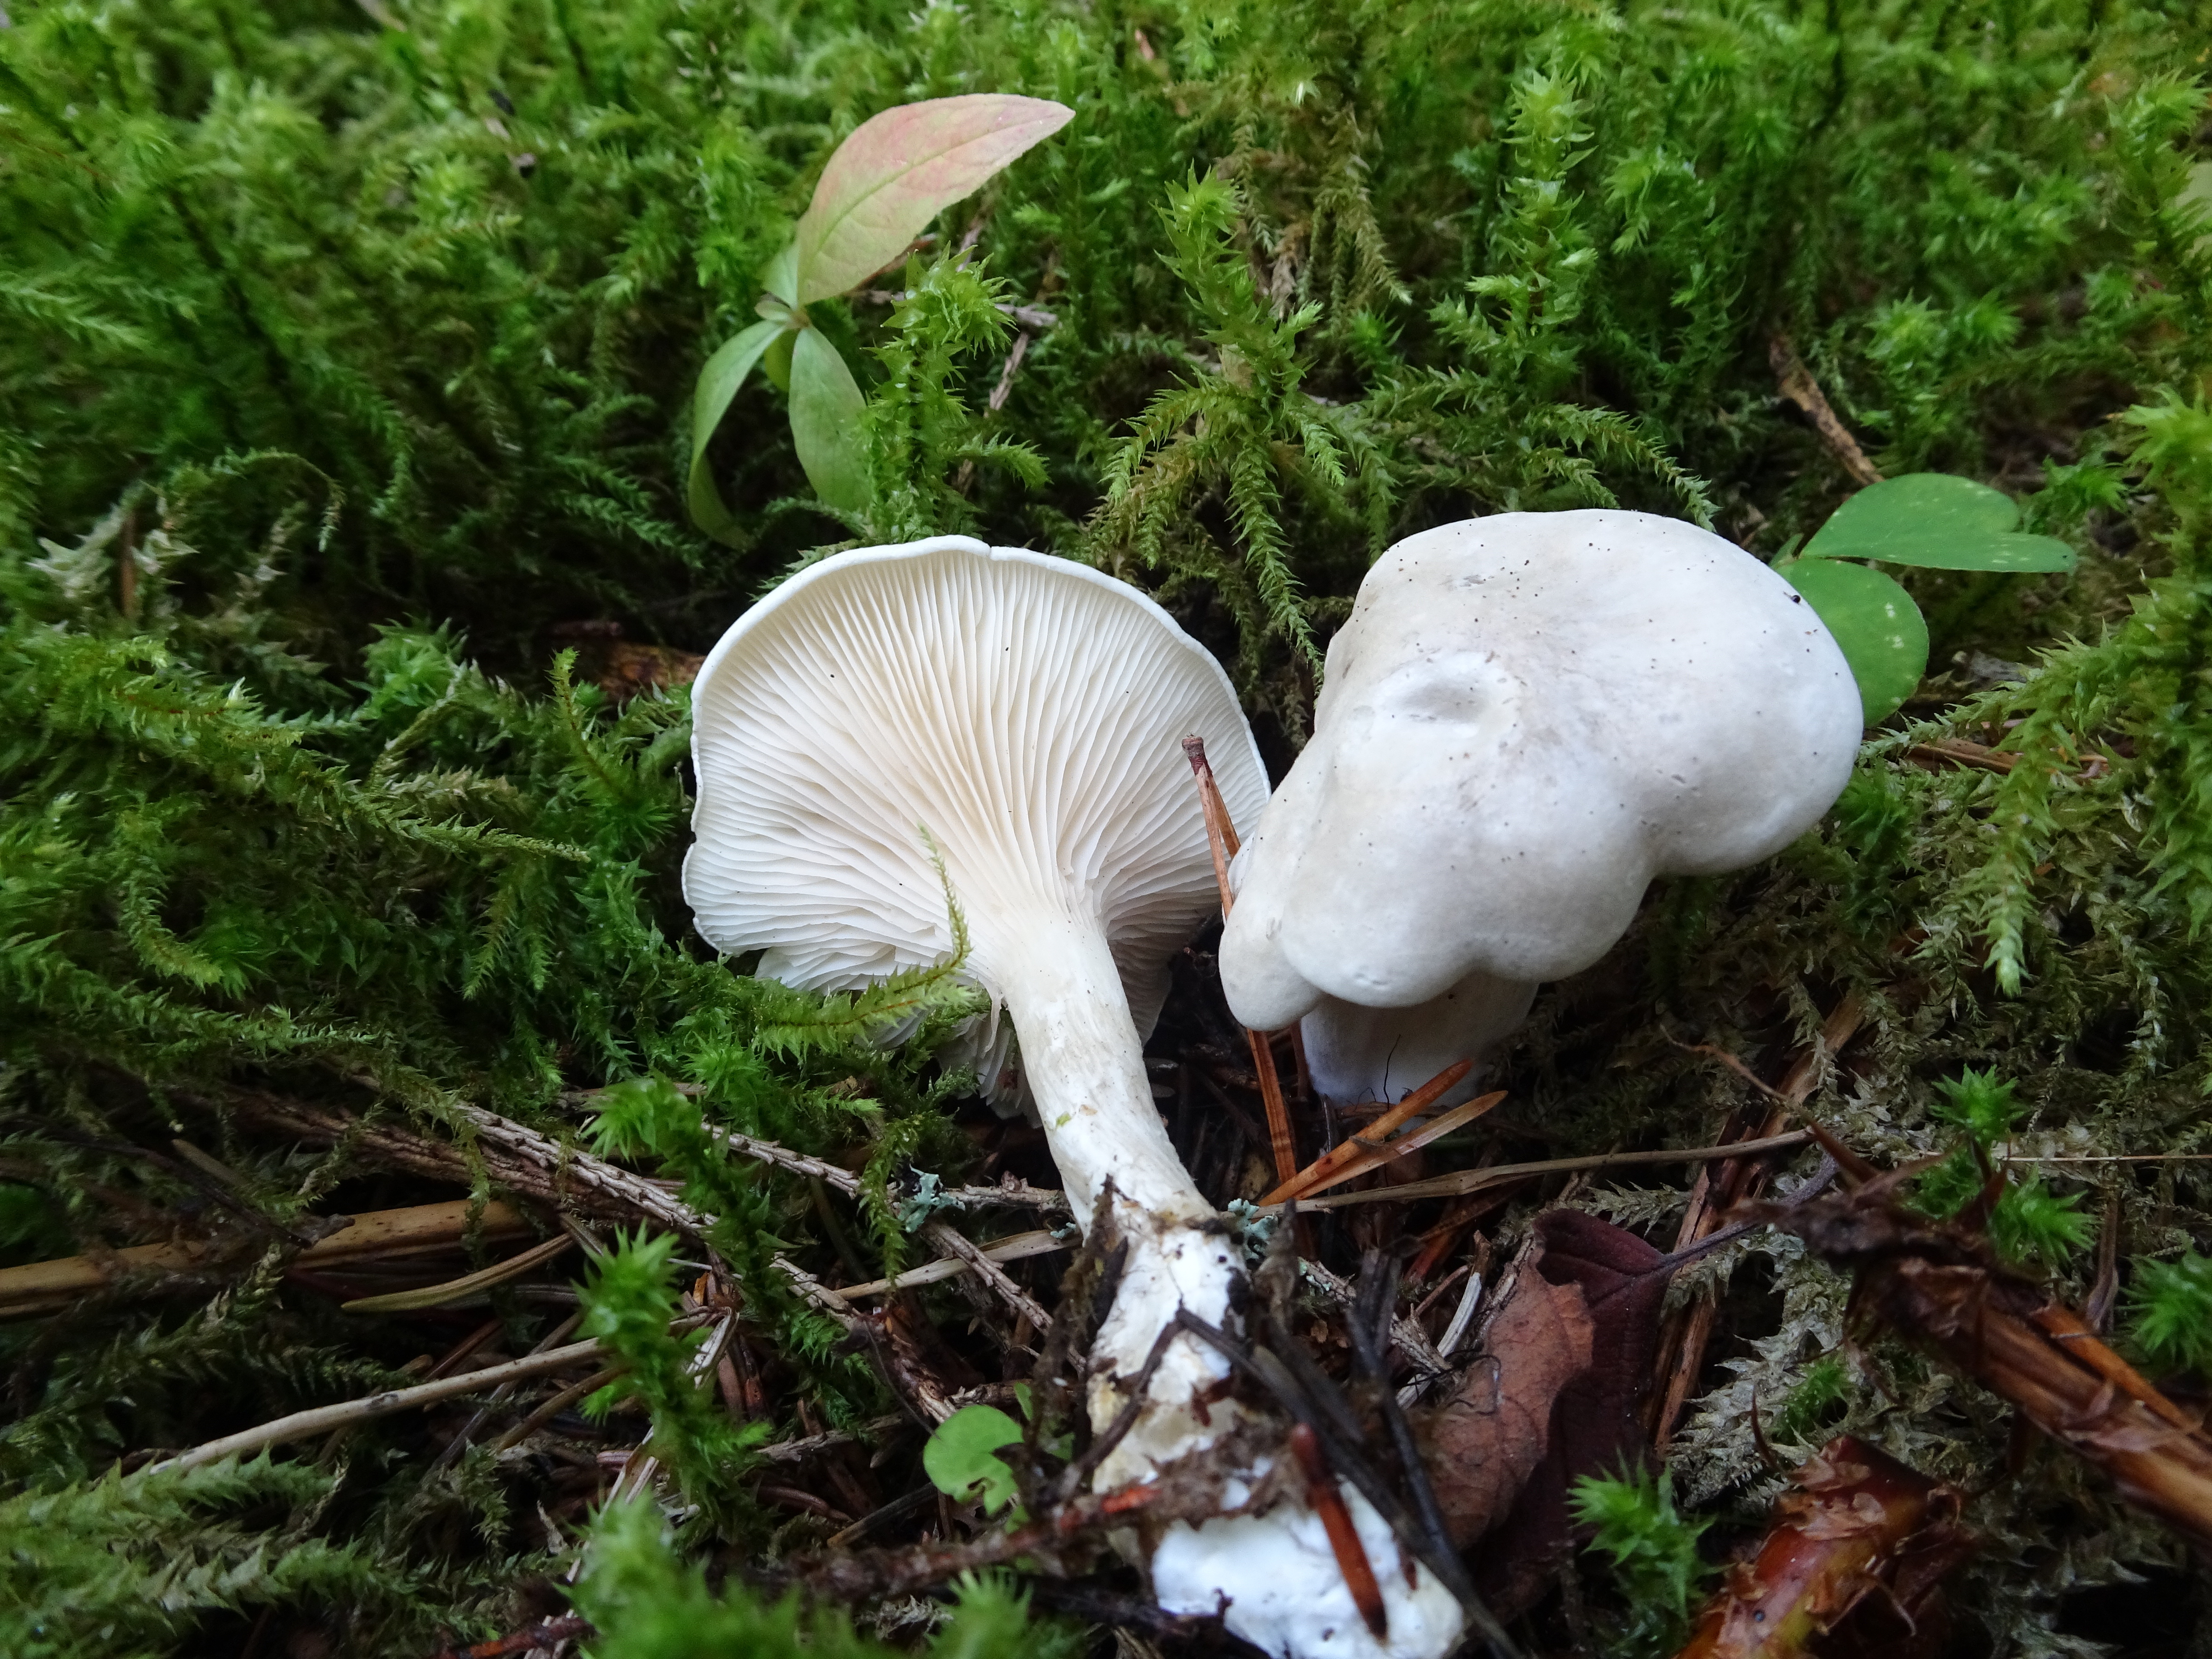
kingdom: Fungi
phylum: Basidiomycota
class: Agaricomycetes
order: Agaricales
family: Entolomataceae
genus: Clitopilus
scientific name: Clitopilus prunulus
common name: The miller
